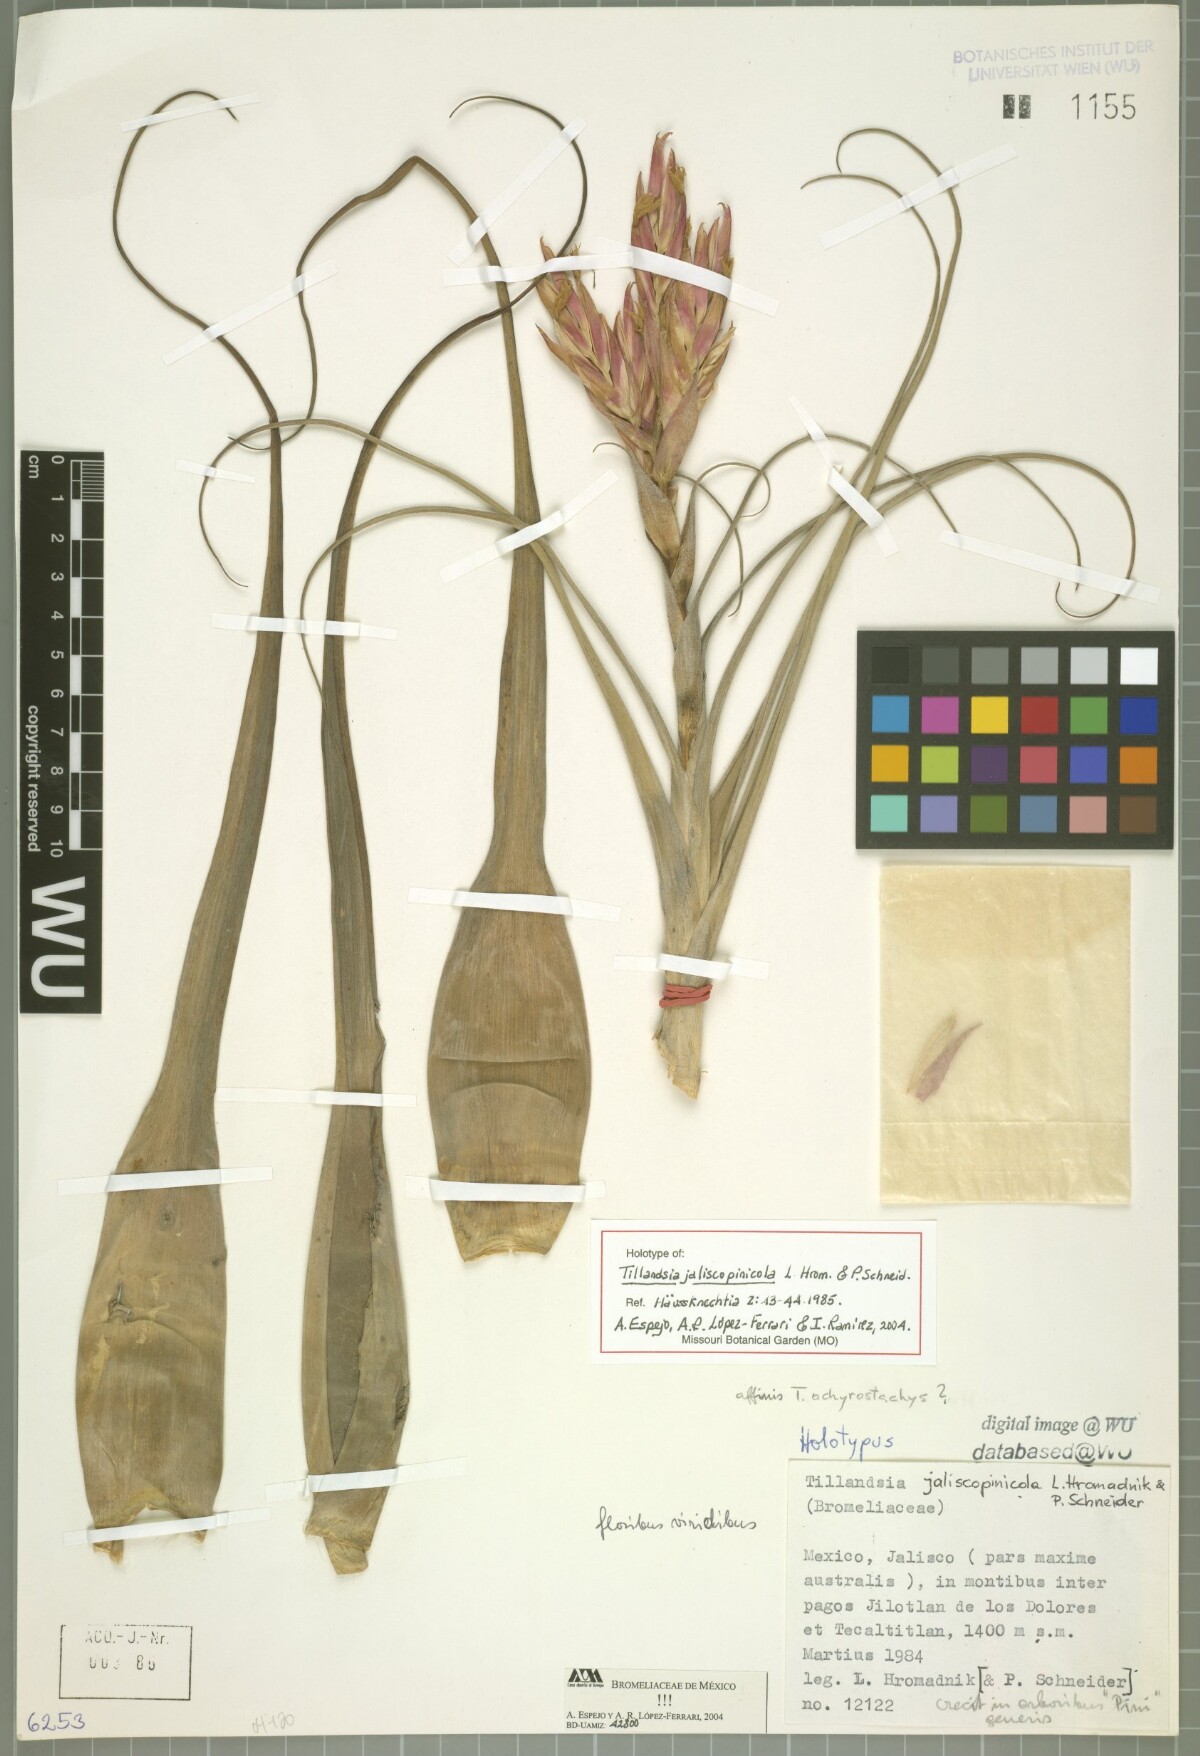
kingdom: Plantae
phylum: Tracheophyta
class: Liliopsida
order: Poales
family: Bromeliaceae
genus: Tillandsia
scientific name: Tillandsia jaliscopinicola
